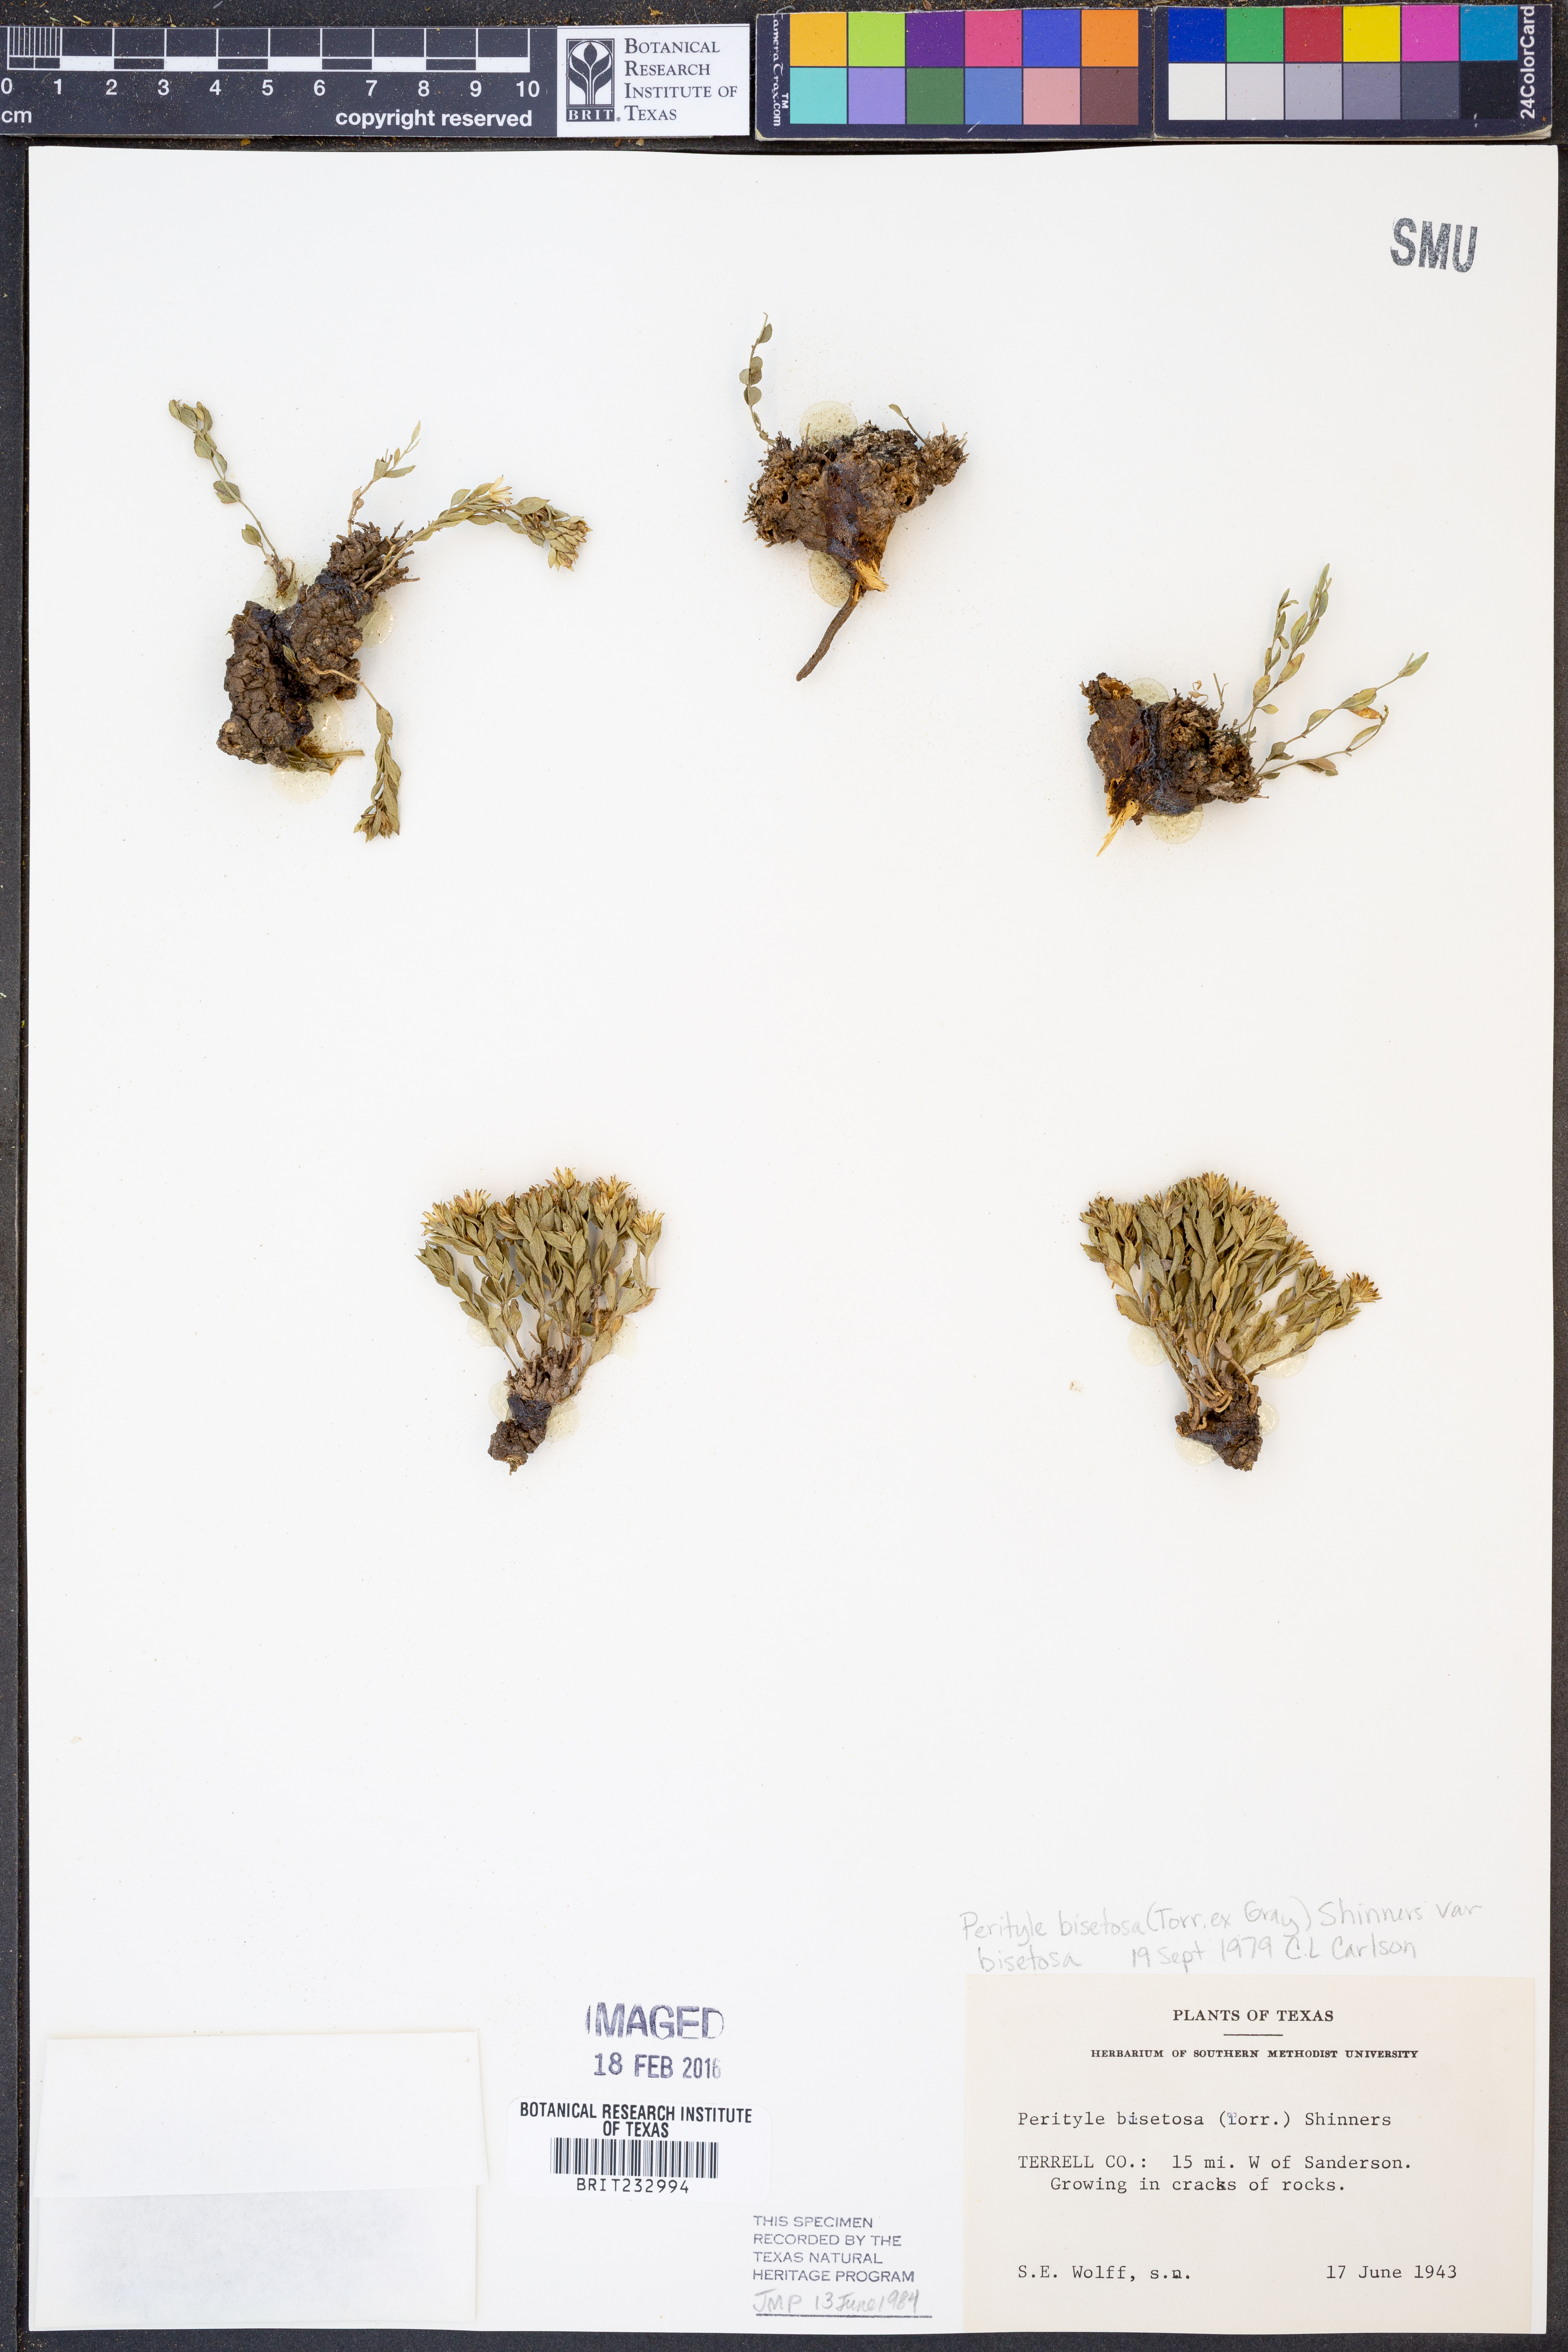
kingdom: Plantae
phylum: Tracheophyta
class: Magnoliopsida
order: Asterales
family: Asteraceae
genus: Laphamia
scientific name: Laphamia bisetosa
